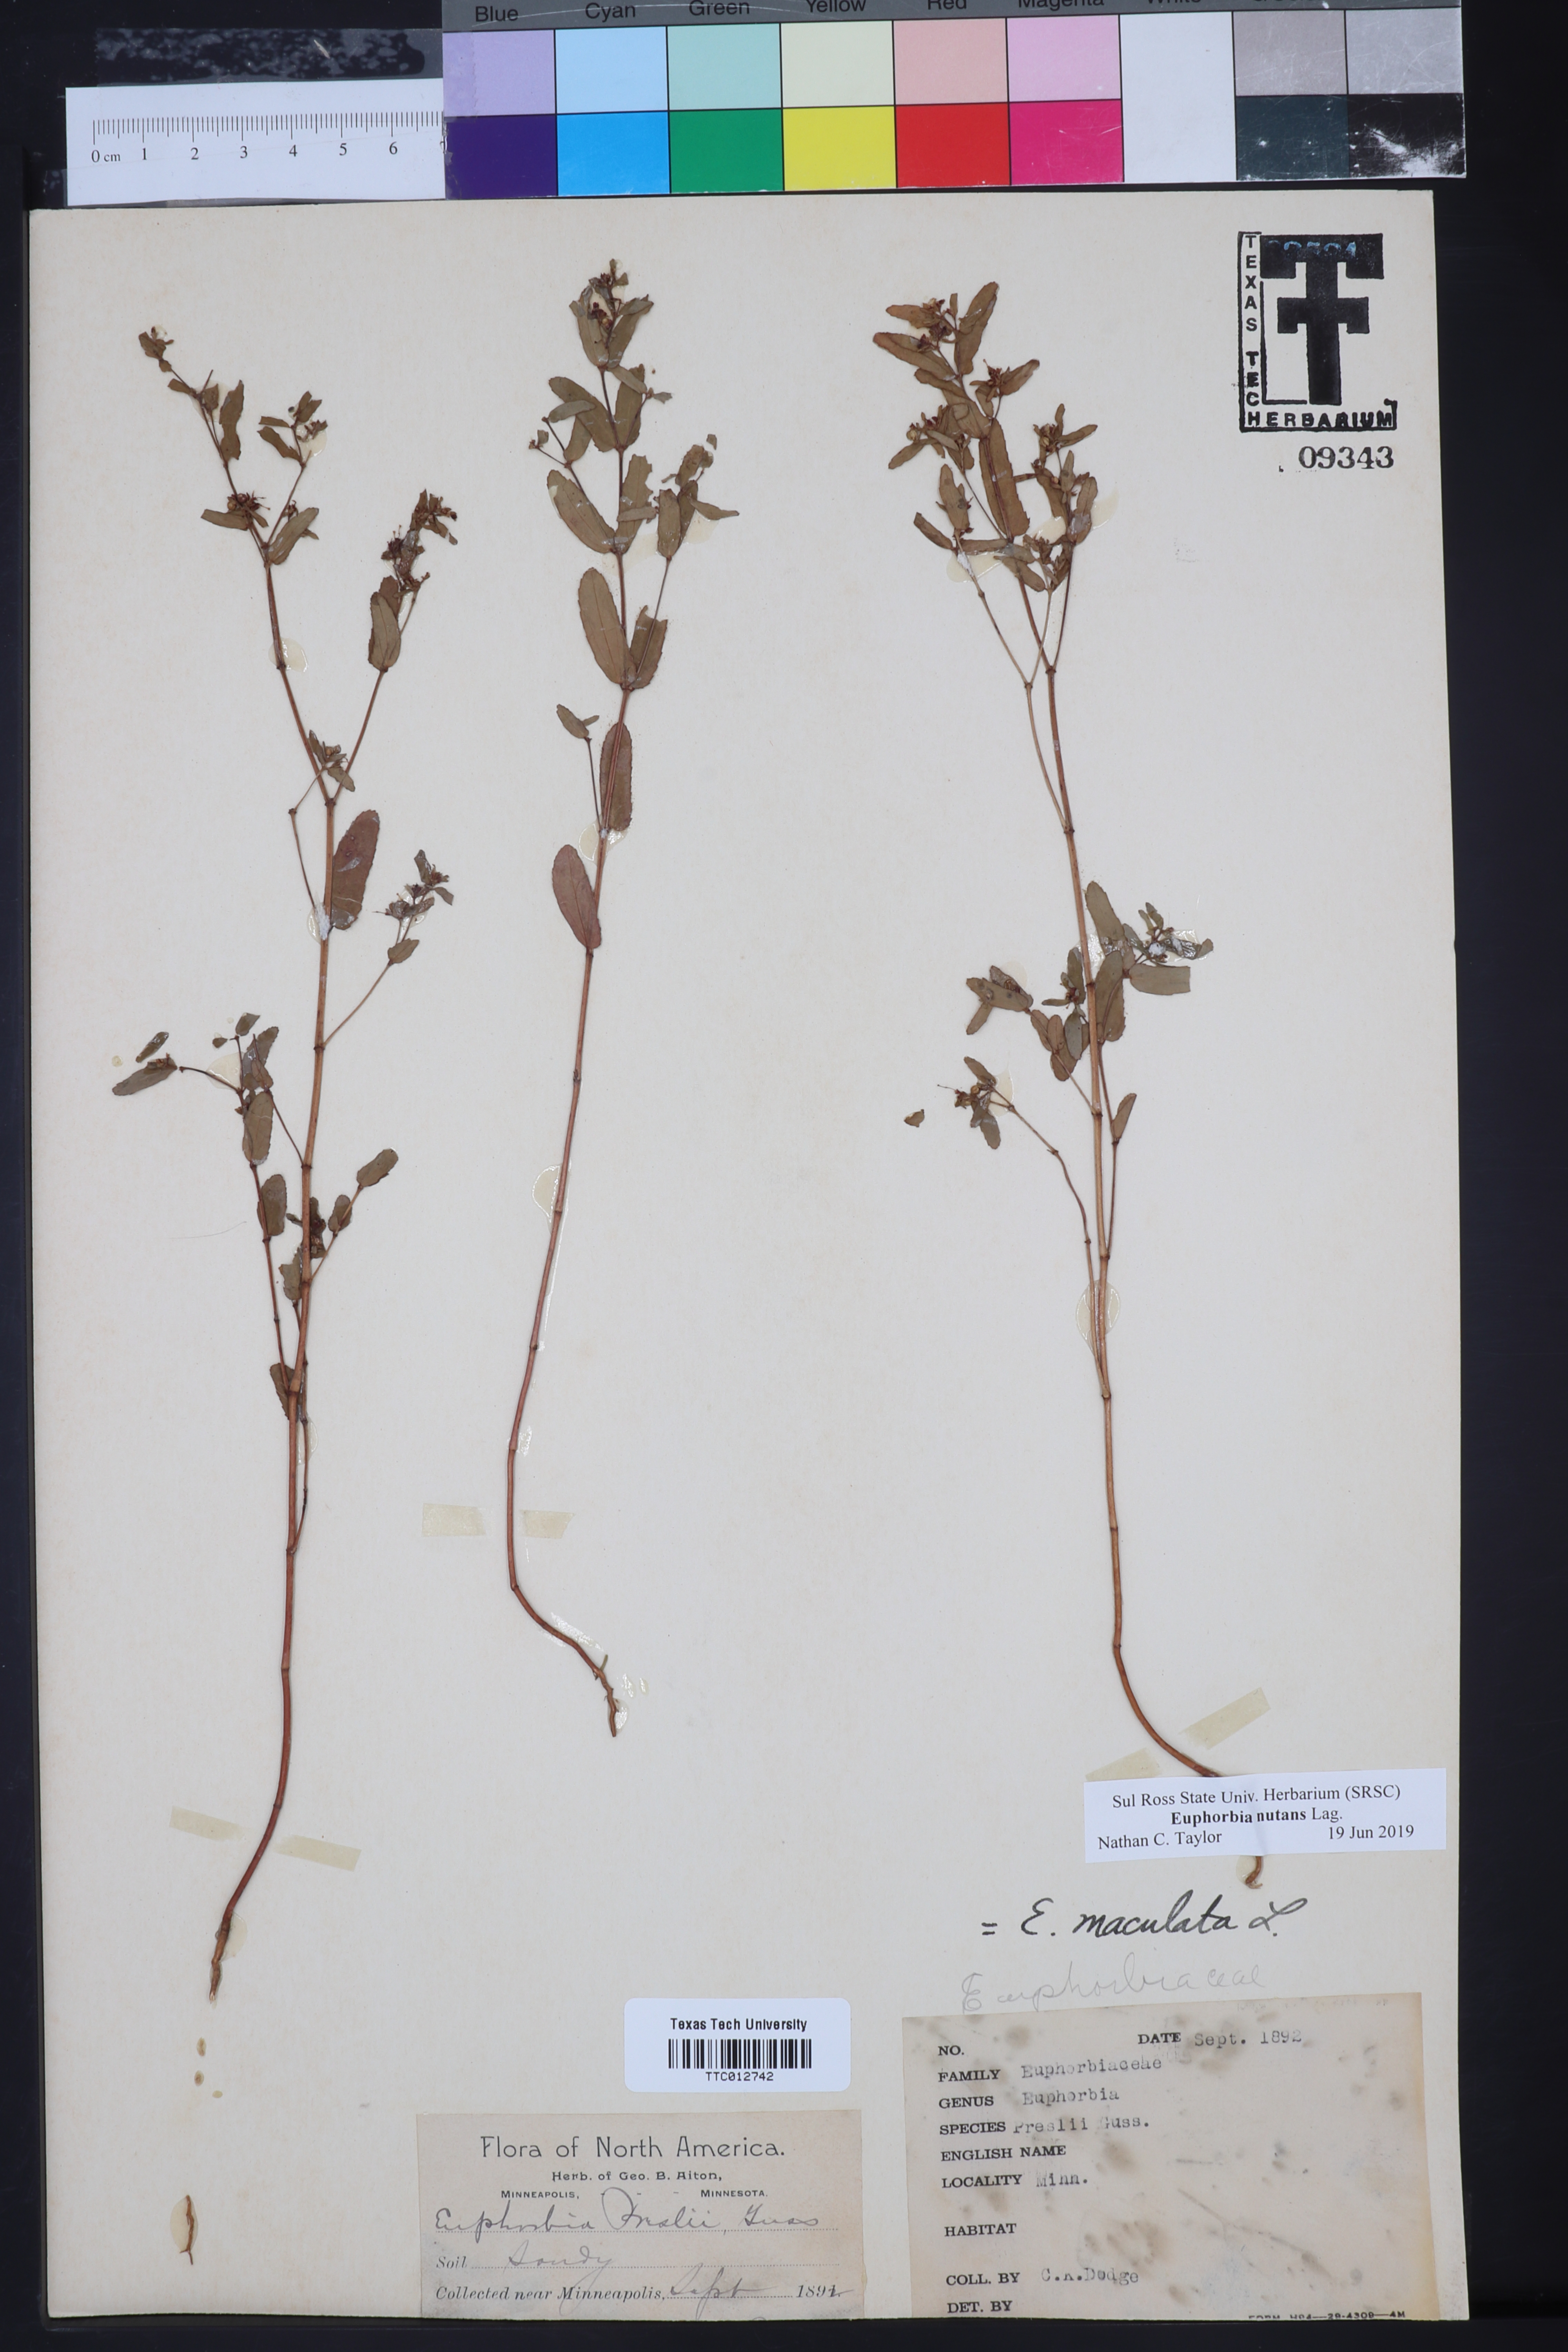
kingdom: Plantae
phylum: Tracheophyta
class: Magnoliopsida
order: Malpighiales
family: Euphorbiaceae
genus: Euphorbia
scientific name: Euphorbia maculata
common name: Spotted spurge
